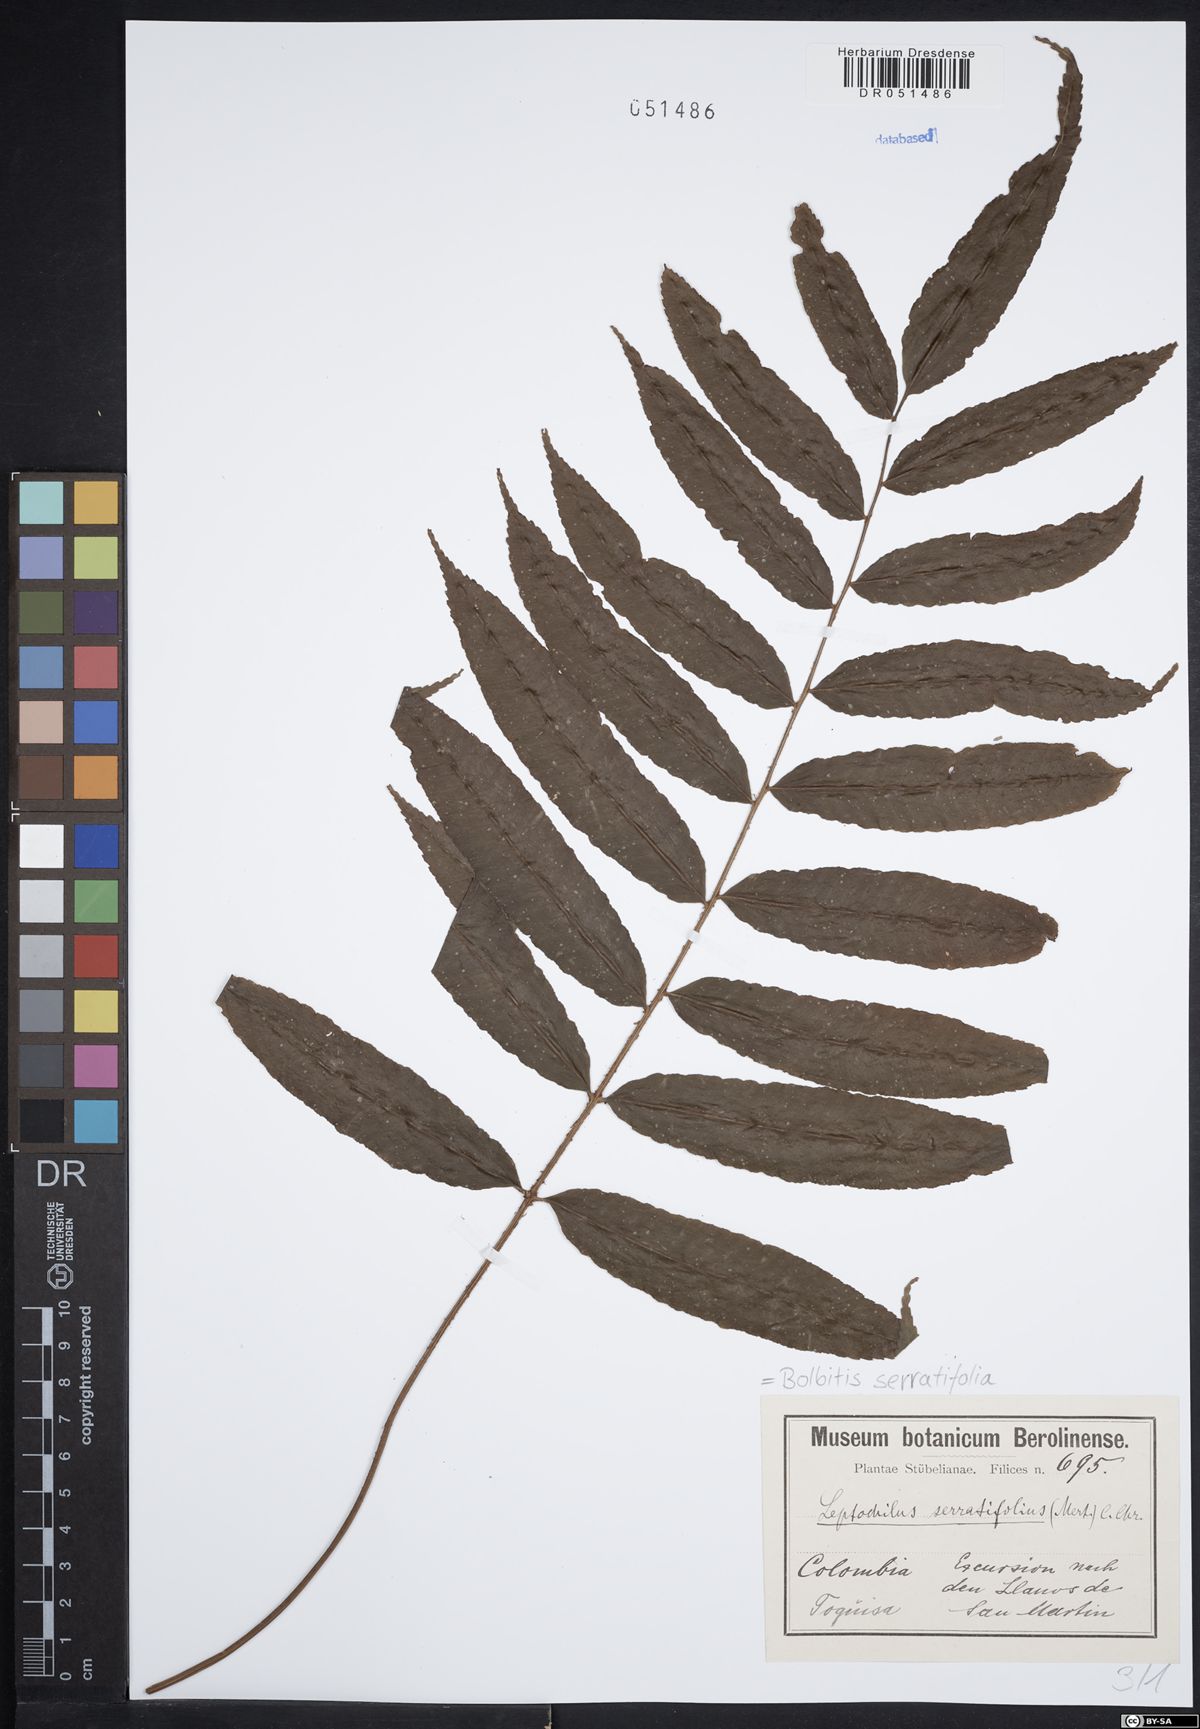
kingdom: Plantae
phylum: Tracheophyta
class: Polypodiopsida
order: Polypodiales
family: Dryopteridaceae
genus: Bolbitis
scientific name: Bolbitis serratifolia
